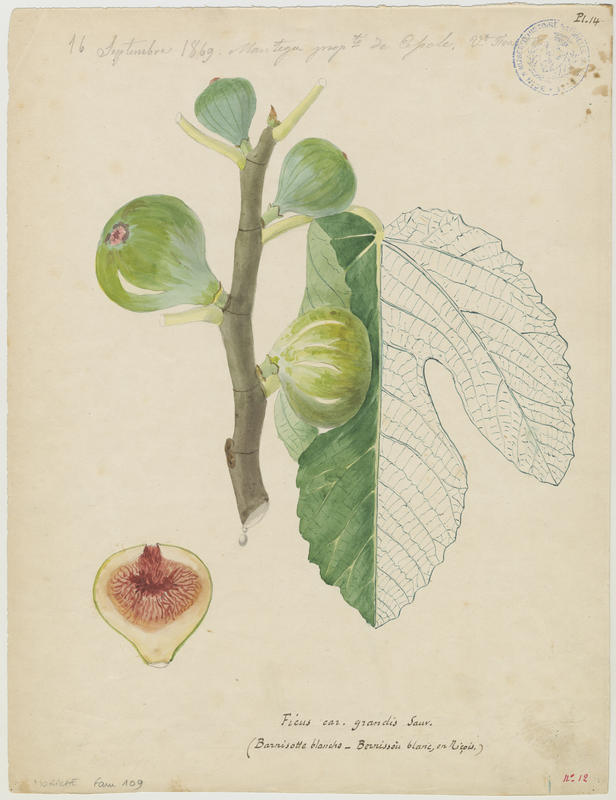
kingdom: Plantae
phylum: Tracheophyta
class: Magnoliopsida
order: Rosales
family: Moraceae
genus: Ficus
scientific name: Ficus carica
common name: Fig
